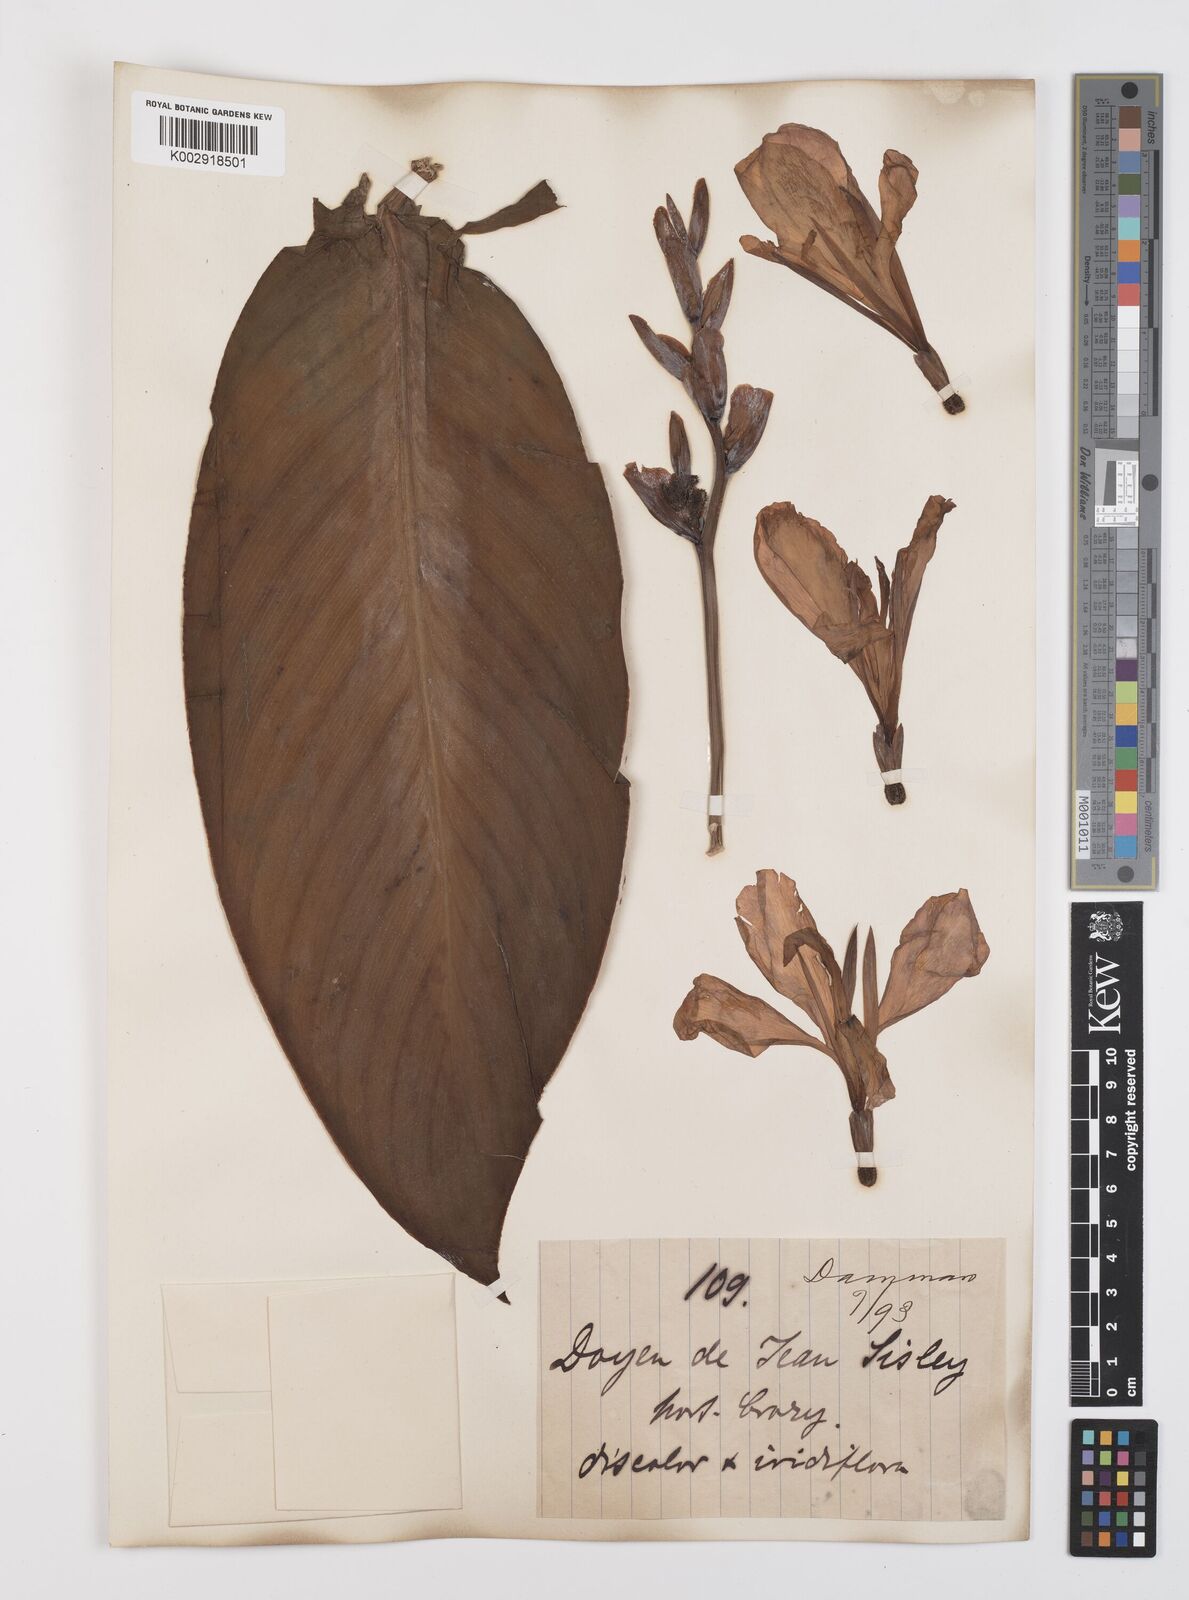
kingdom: Plantae
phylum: Tracheophyta
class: Liliopsida
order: Zingiberales
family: Cannaceae
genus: Canna
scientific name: Canna tuerckheimii
